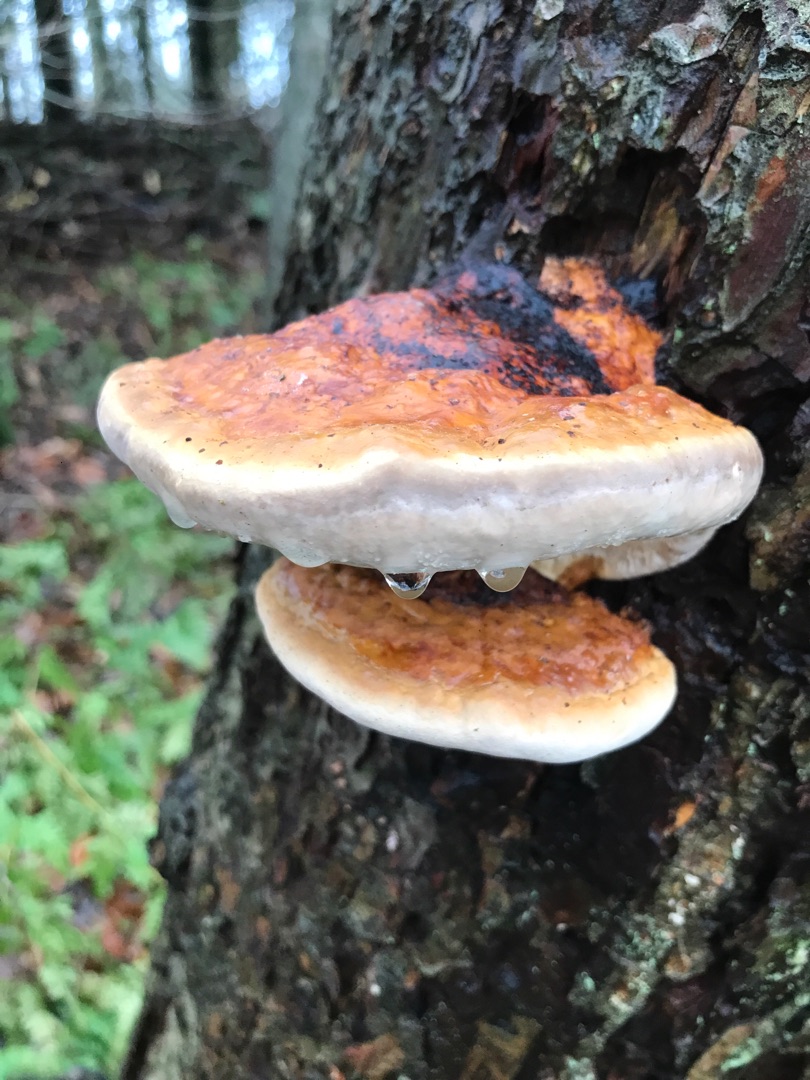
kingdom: Fungi
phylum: Basidiomycota
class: Agaricomycetes
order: Polyporales
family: Fomitopsidaceae
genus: Fomitopsis
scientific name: Fomitopsis pinicola
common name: Randbæltet hovporesvamp
